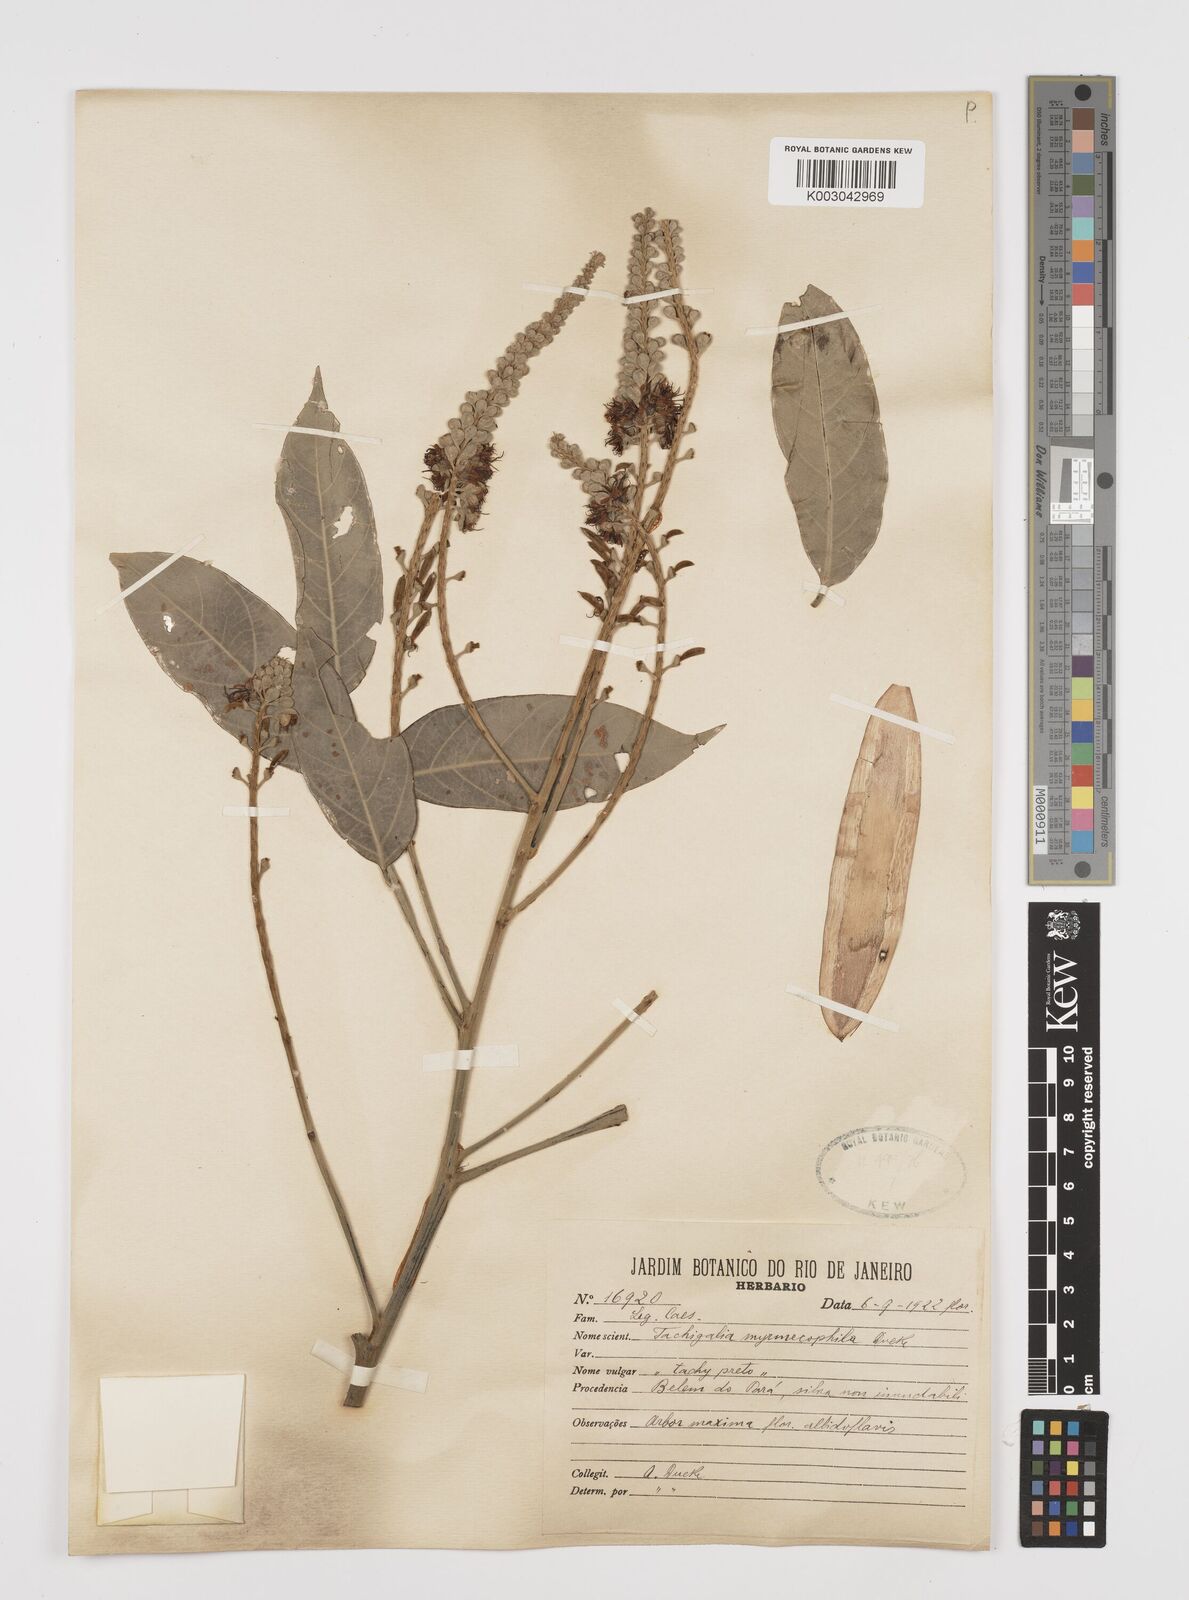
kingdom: Plantae
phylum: Tracheophyta
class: Magnoliopsida
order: Fabales
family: Fabaceae
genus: Tachigali
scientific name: Tachigali glauca
